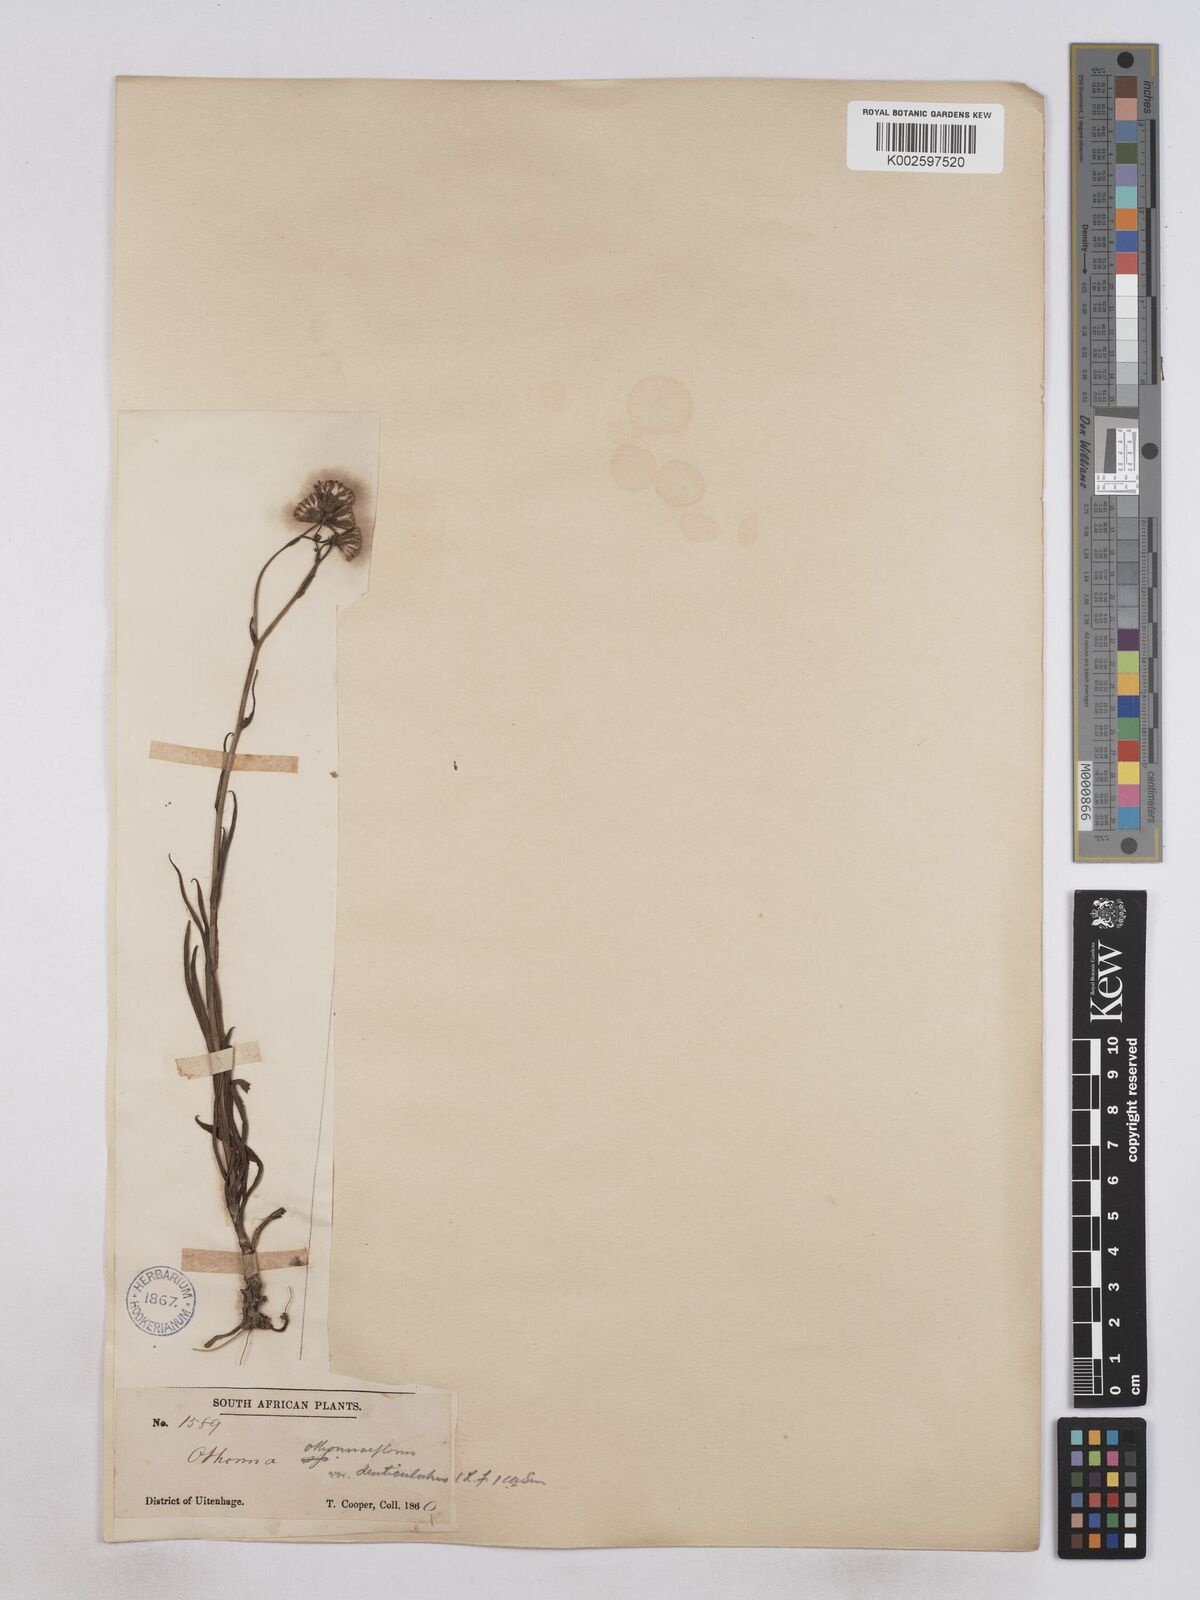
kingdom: Plantae
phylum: Tracheophyta
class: Magnoliopsida
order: Asterales
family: Asteraceae
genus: Senecio
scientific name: Senecio othonniflorus
